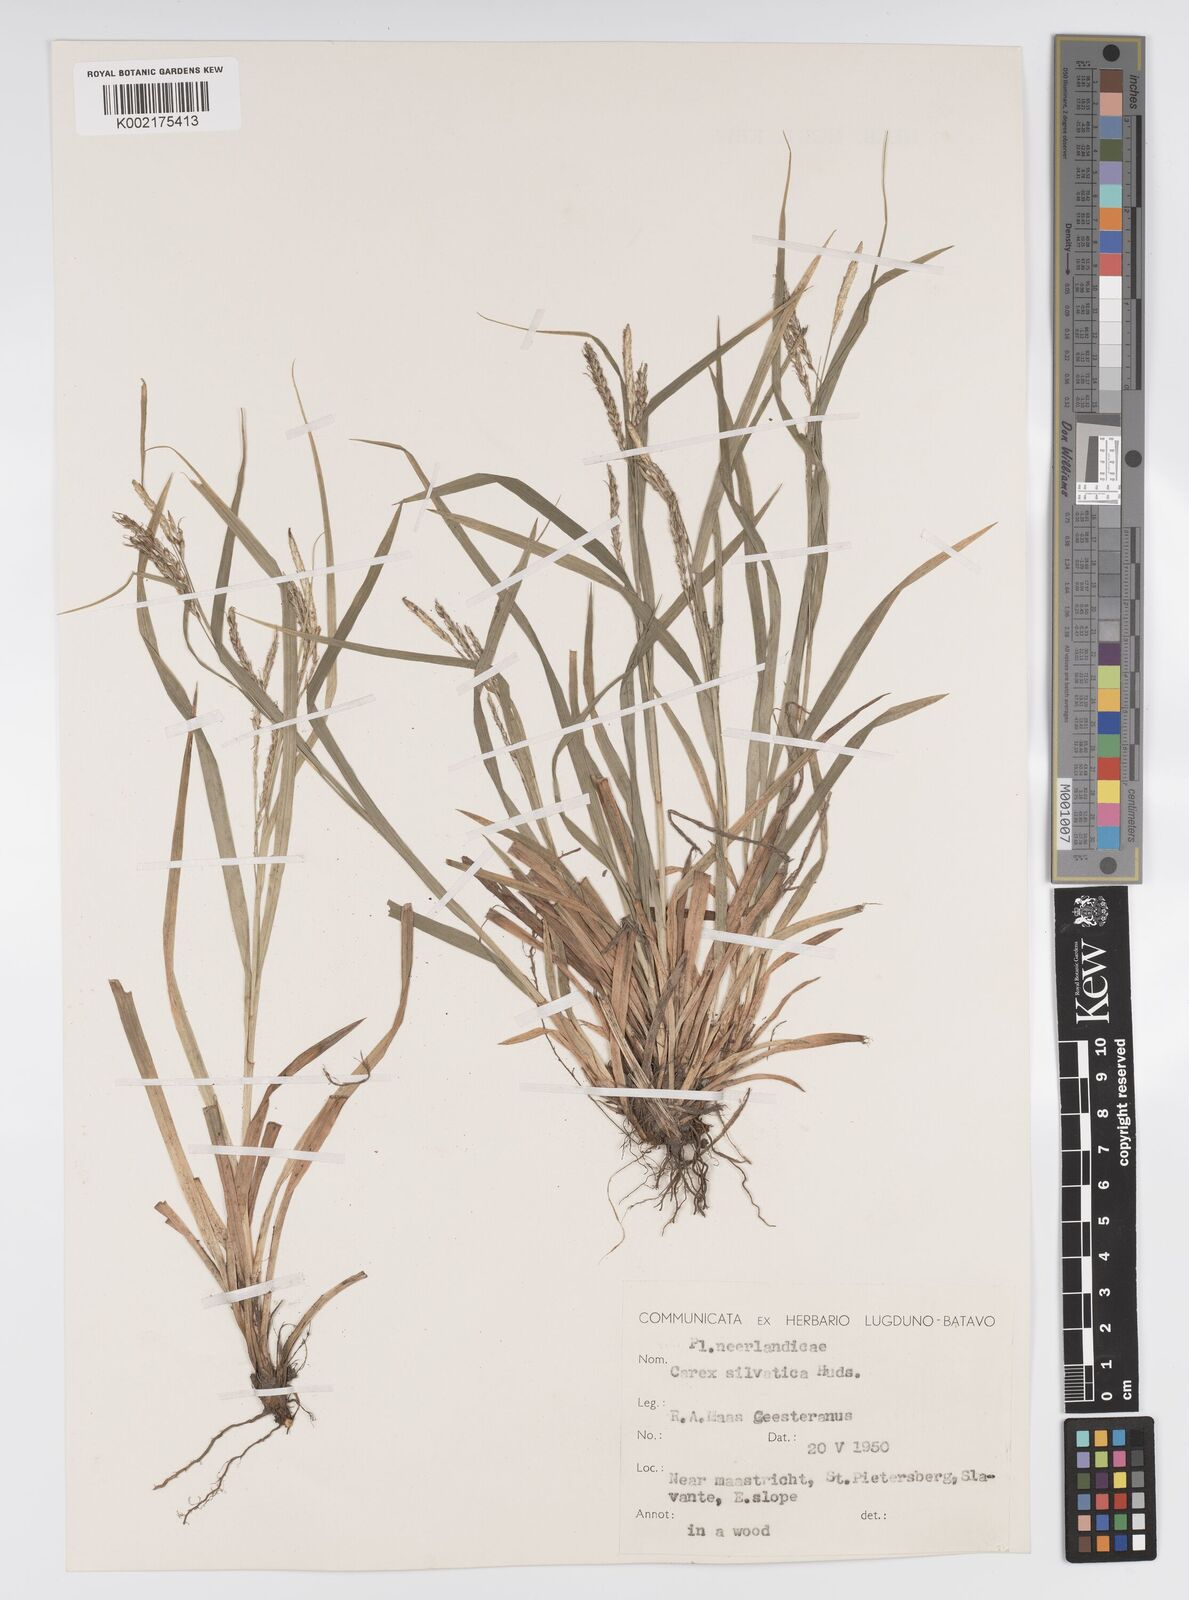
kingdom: Plantae
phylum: Tracheophyta
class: Liliopsida
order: Poales
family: Cyperaceae
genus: Carex
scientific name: Carex sylvatica
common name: Wood-sedge
